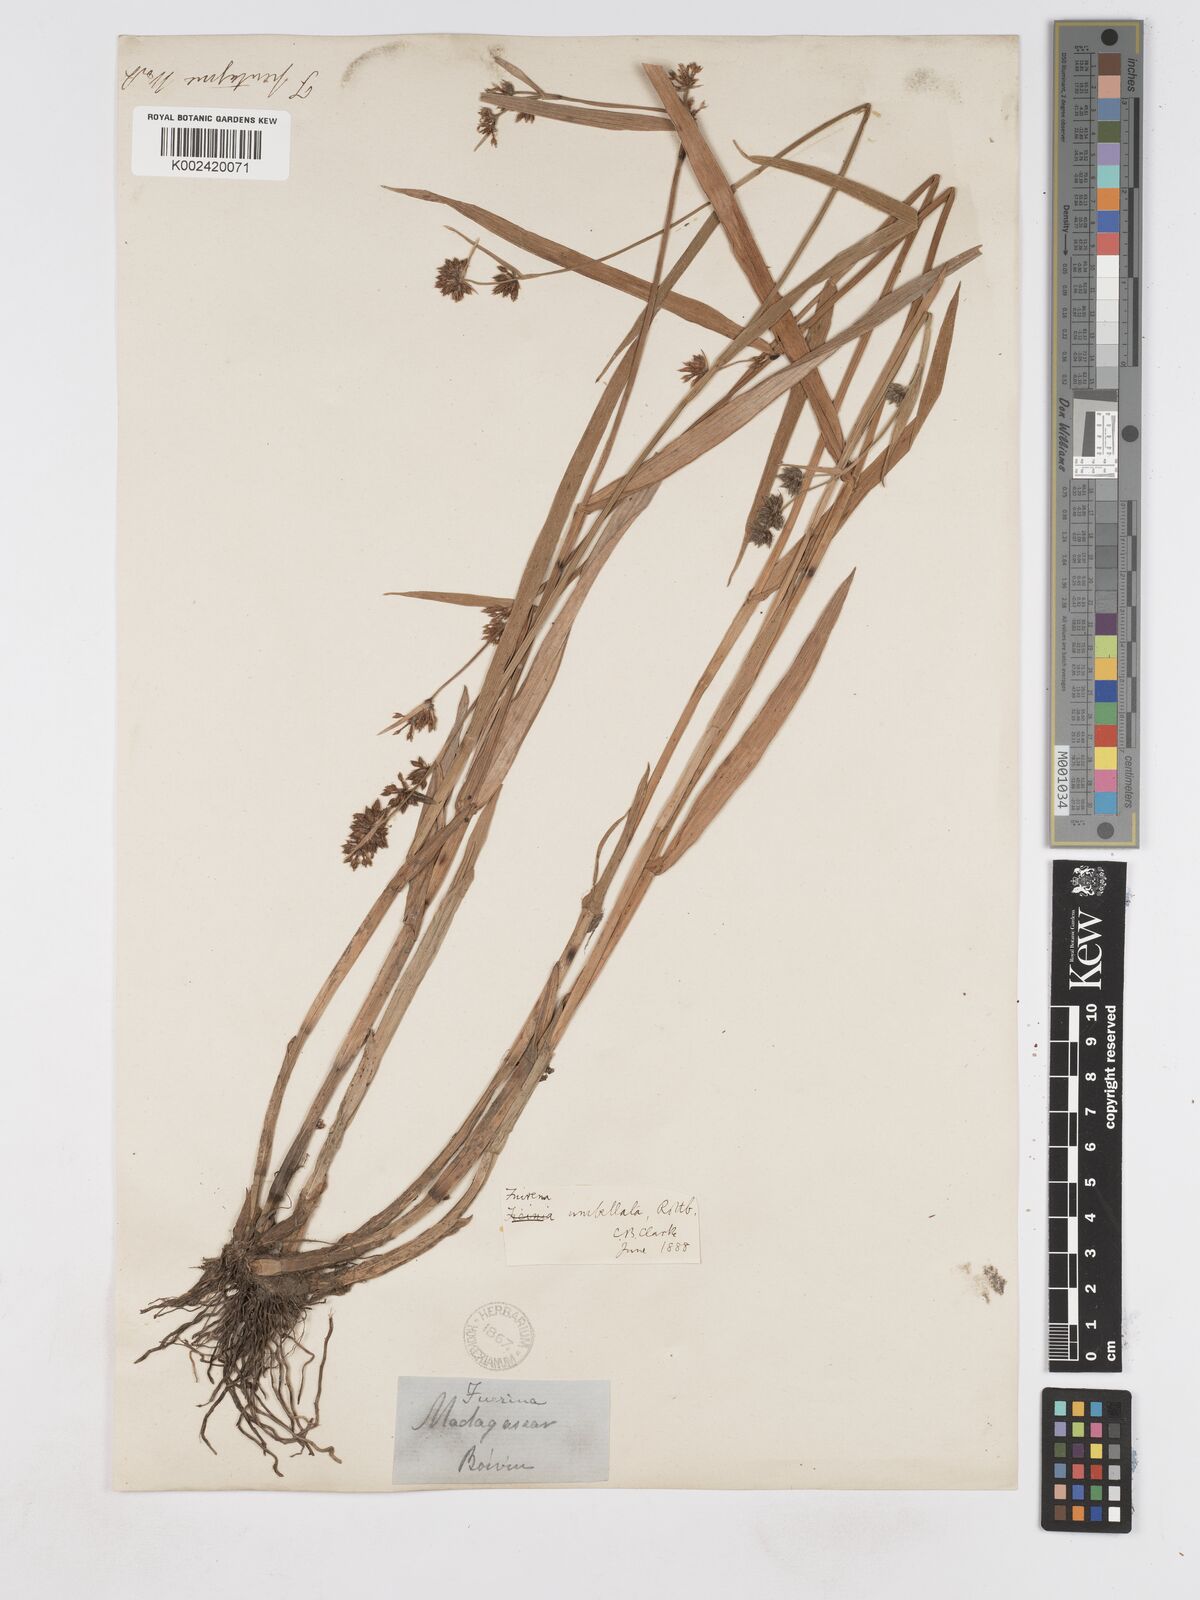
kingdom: Plantae
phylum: Tracheophyta
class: Liliopsida
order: Poales
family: Cyperaceae
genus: Fuirena
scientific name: Fuirena umbellata
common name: Yefen
